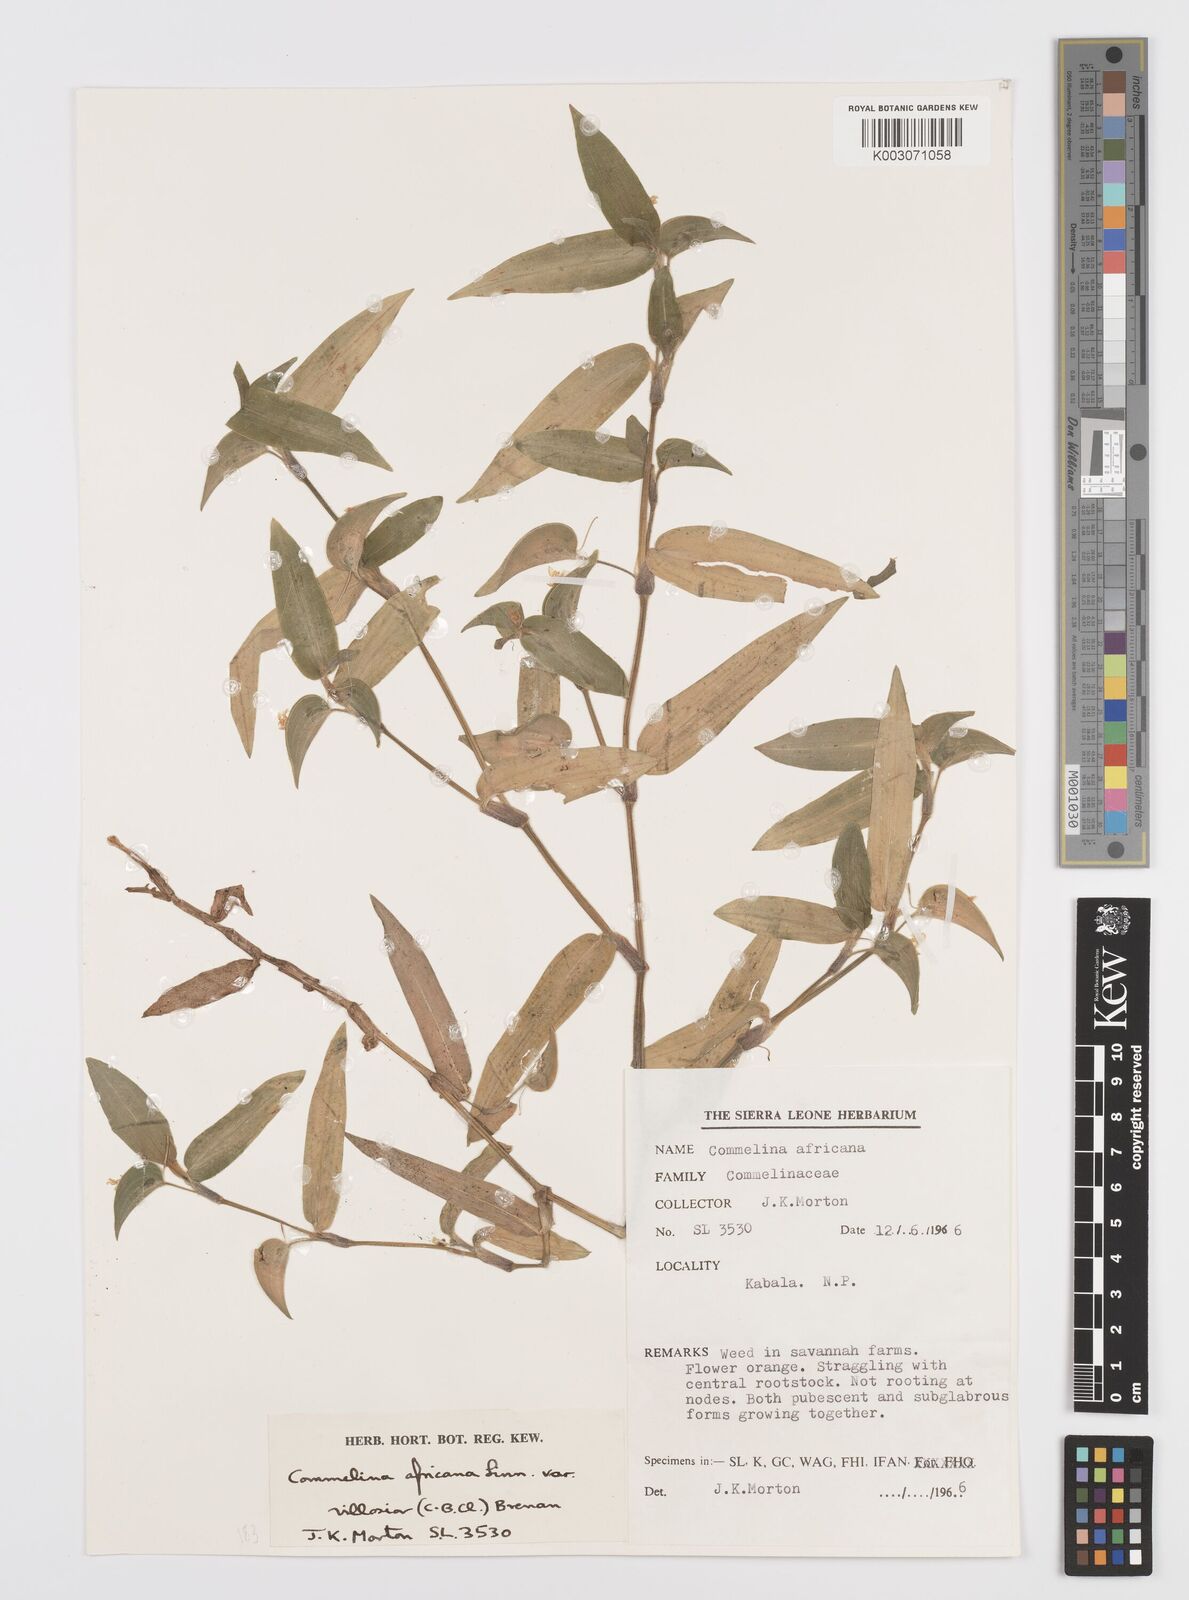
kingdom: Plantae
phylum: Tracheophyta
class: Liliopsida
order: Commelinales
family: Commelinaceae
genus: Commelina
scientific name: Commelina africana
